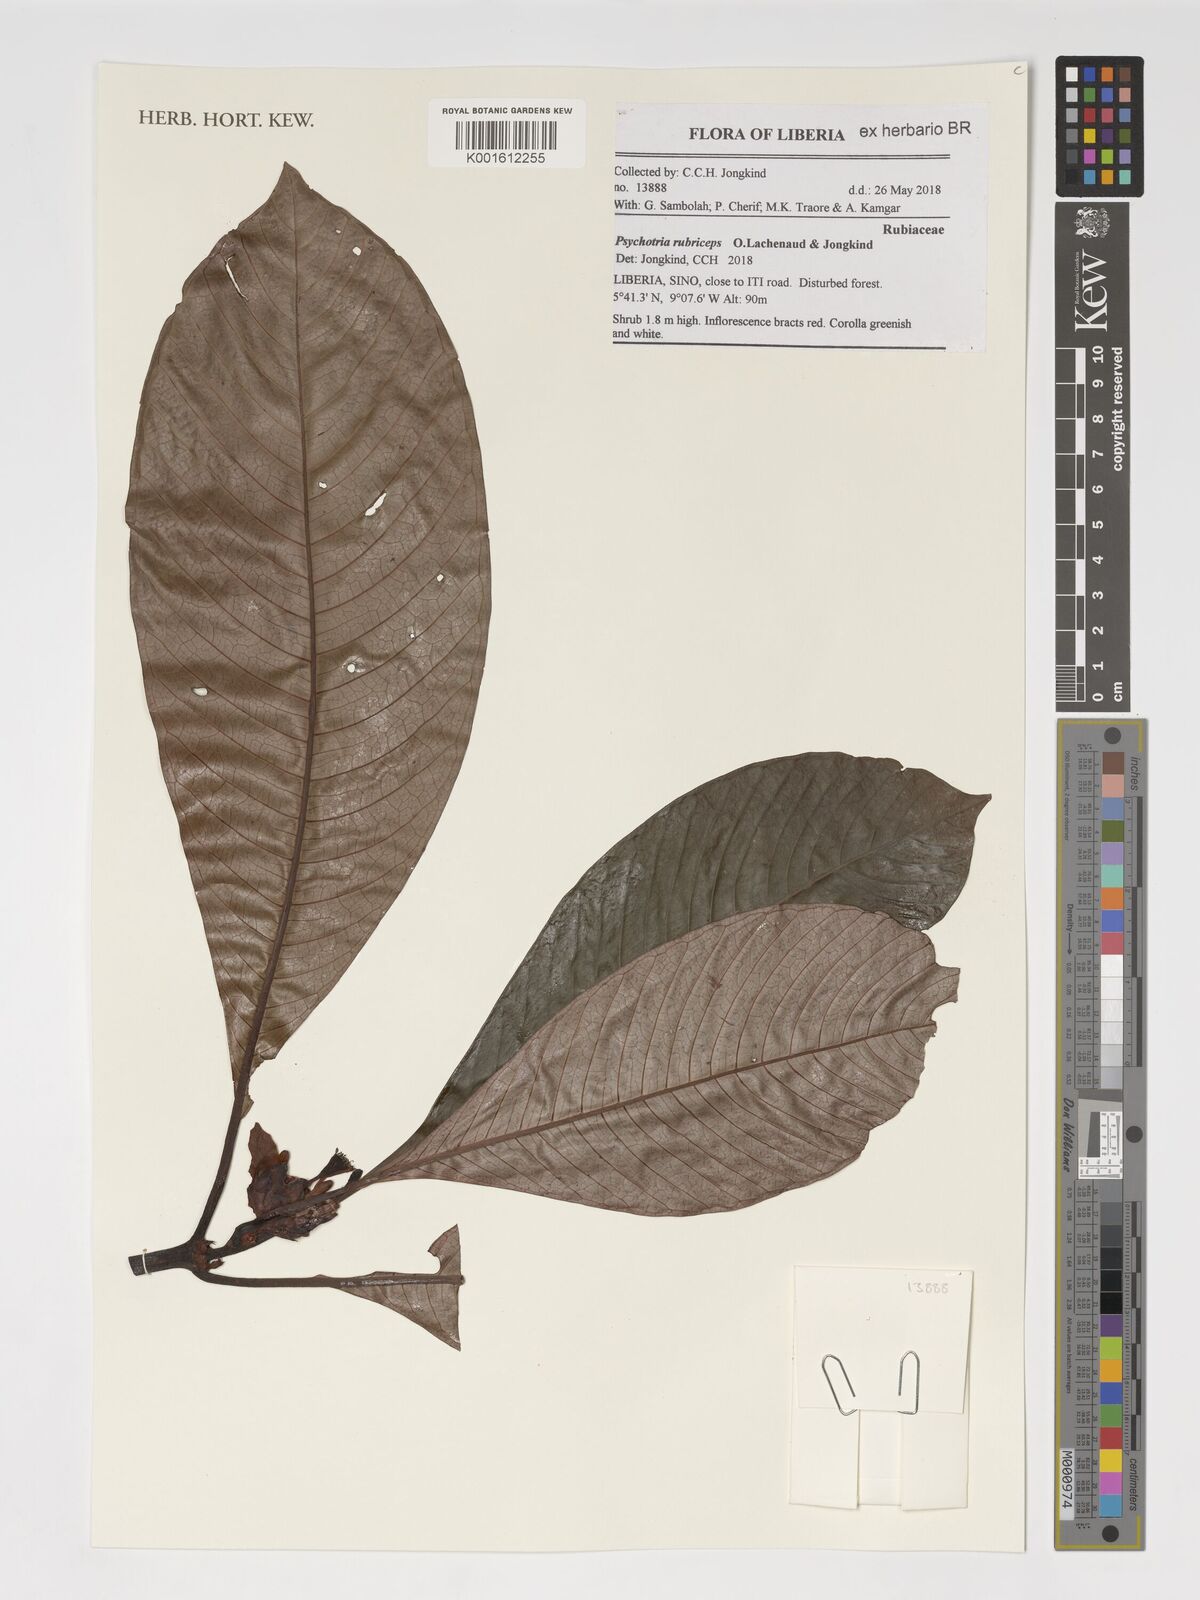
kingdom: Plantae
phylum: Tracheophyta
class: Magnoliopsida
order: Gentianales
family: Rubiaceae
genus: Psychotria
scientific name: Psychotria rubriceps
